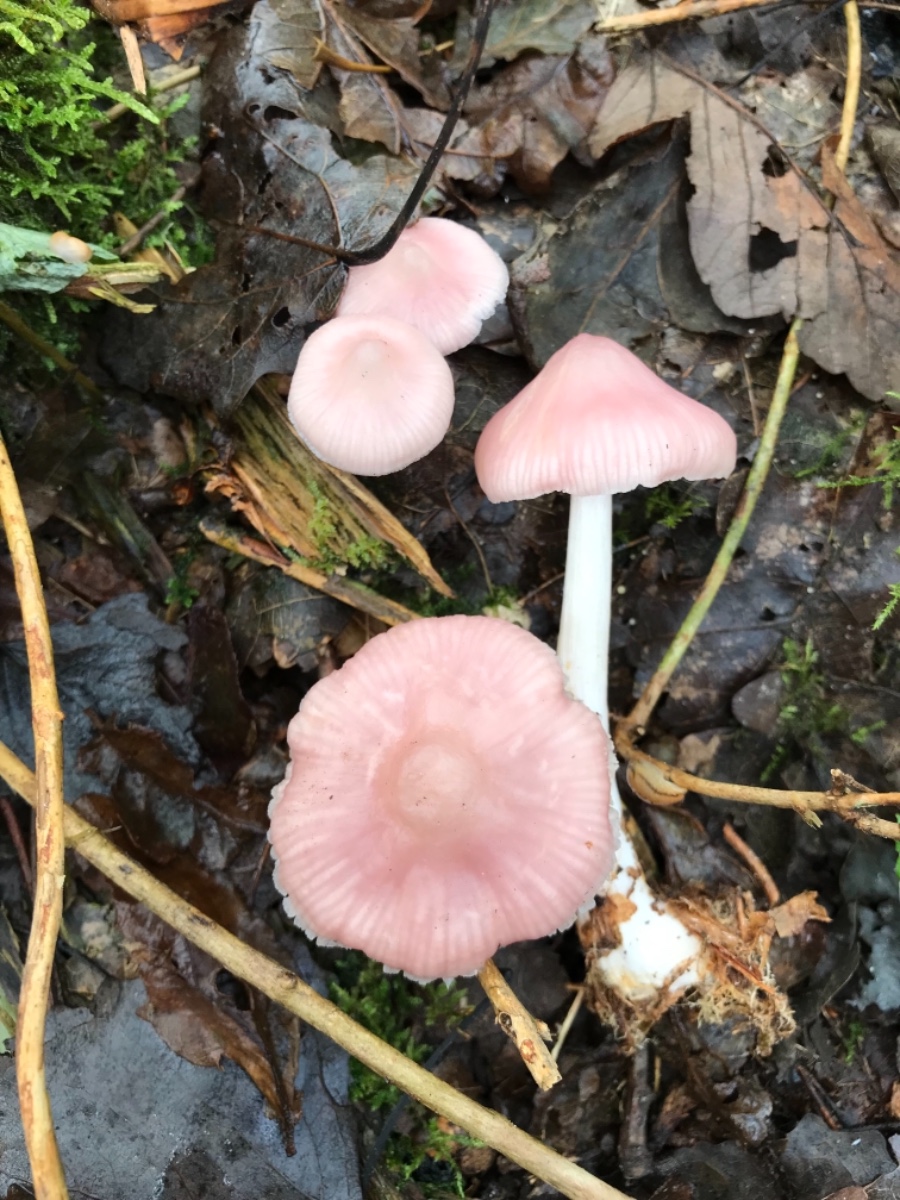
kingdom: Fungi
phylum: Basidiomycota
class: Agaricomycetes
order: Agaricales
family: Mycenaceae
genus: Mycena
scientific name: Mycena rosea
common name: rosa huesvamp
